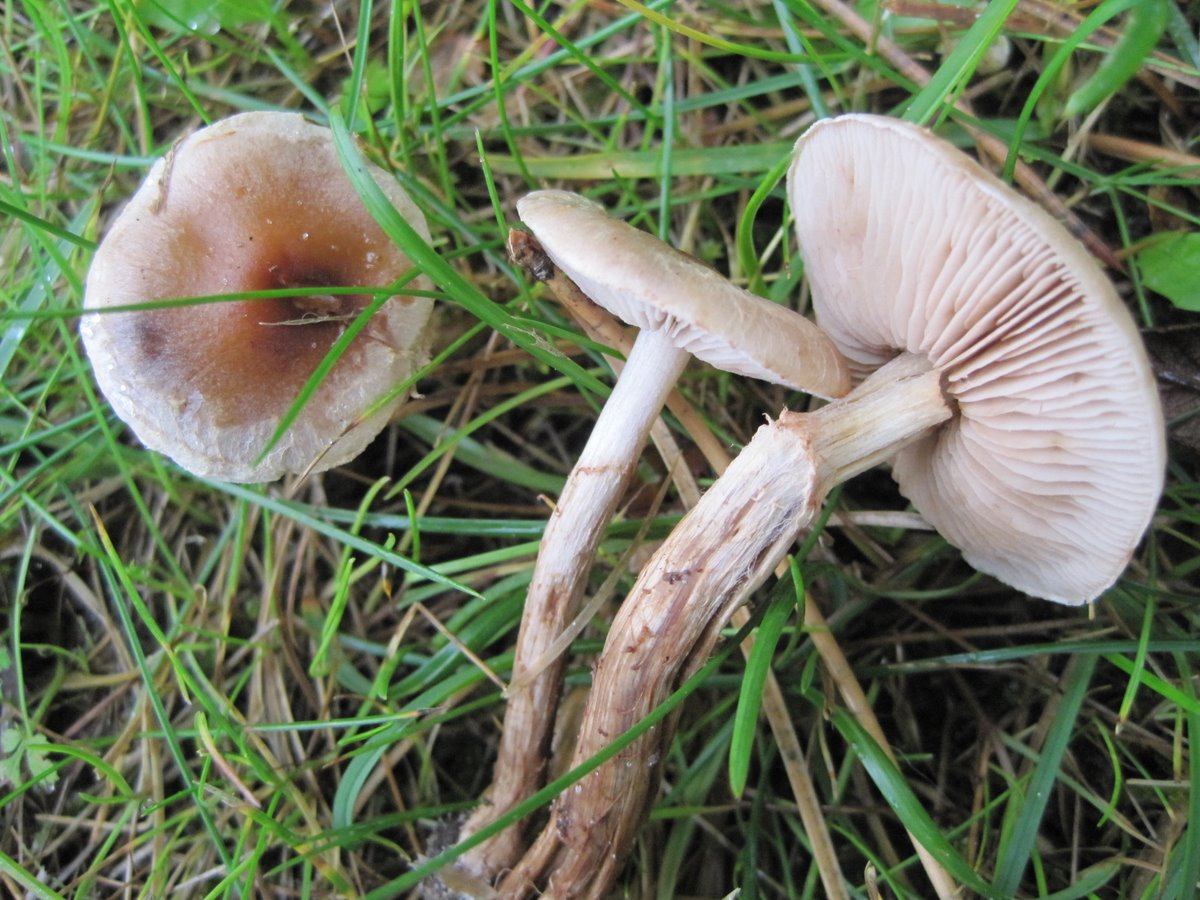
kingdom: Fungi
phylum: Basidiomycota
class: Agaricomycetes
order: Agaricales
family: Hymenogastraceae
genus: Hebeloma
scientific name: Hebeloma mesophaeum
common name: lerbrun tåreblad
